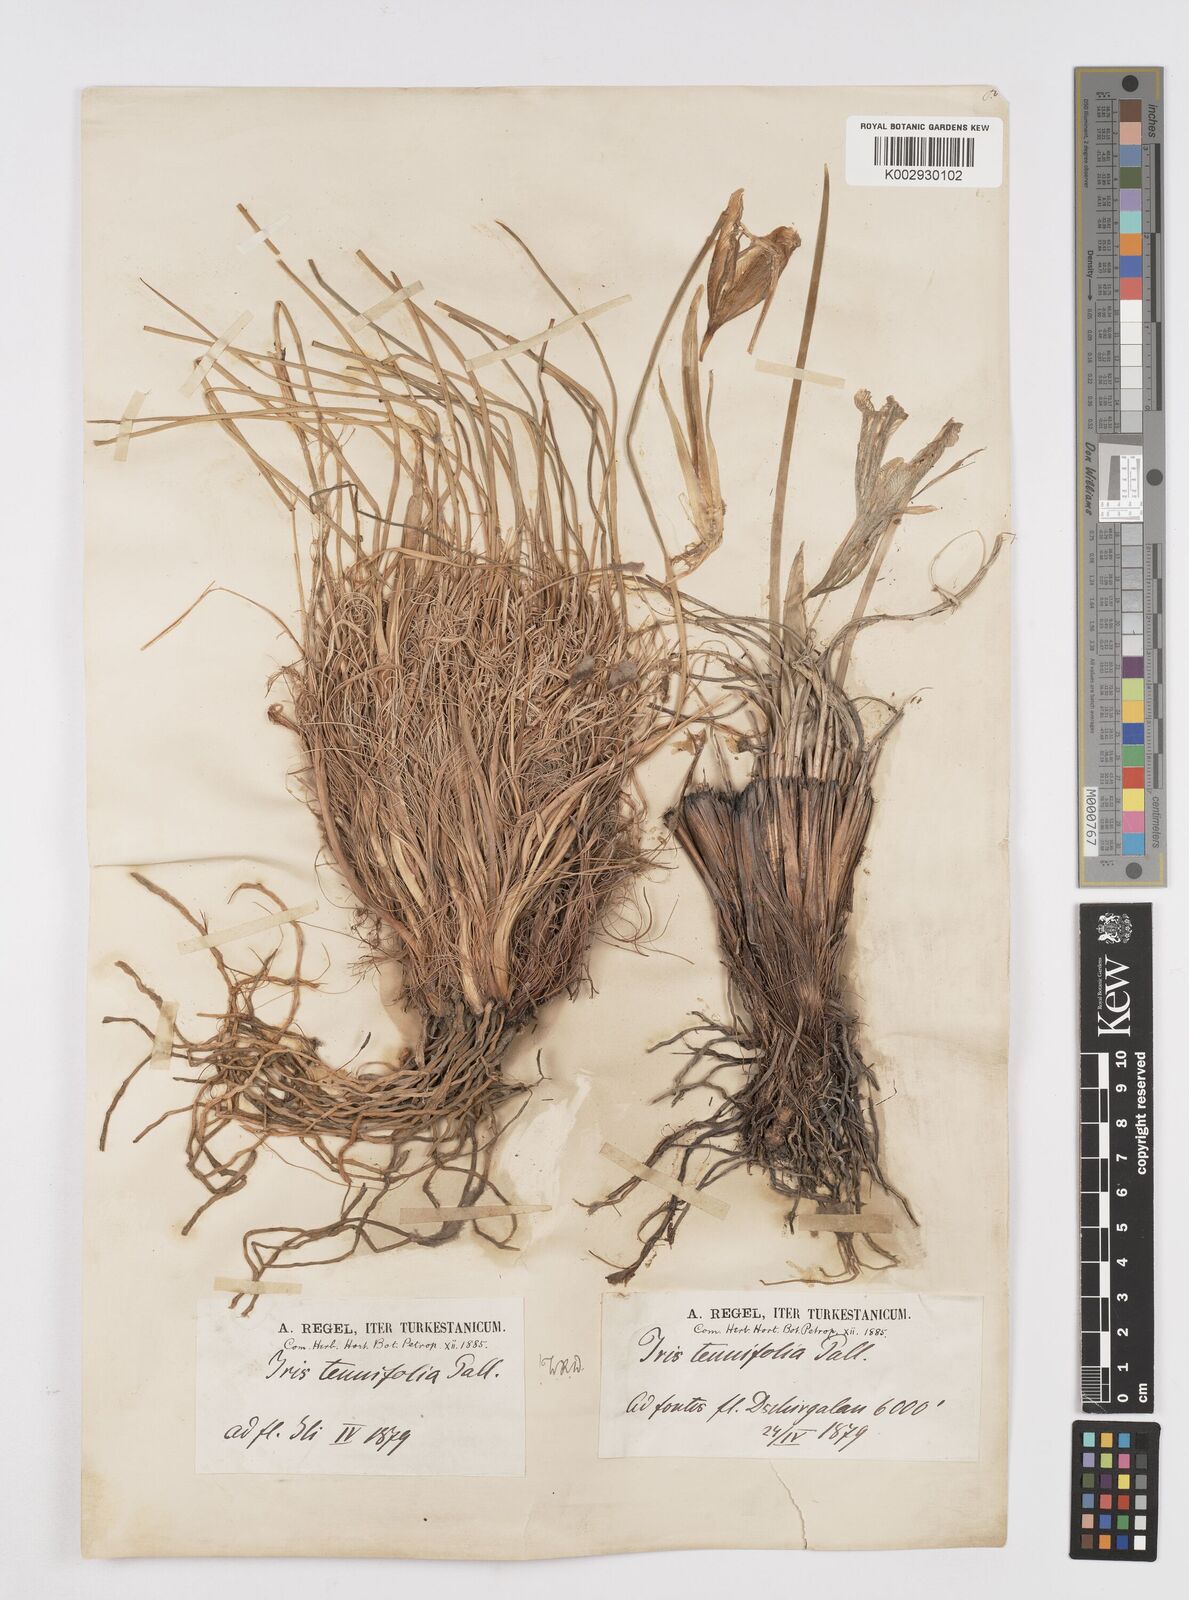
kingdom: Plantae
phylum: Tracheophyta
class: Liliopsida
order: Asparagales
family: Iridaceae
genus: Iris
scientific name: Iris tenuifolia
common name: Slender-leaf iris
